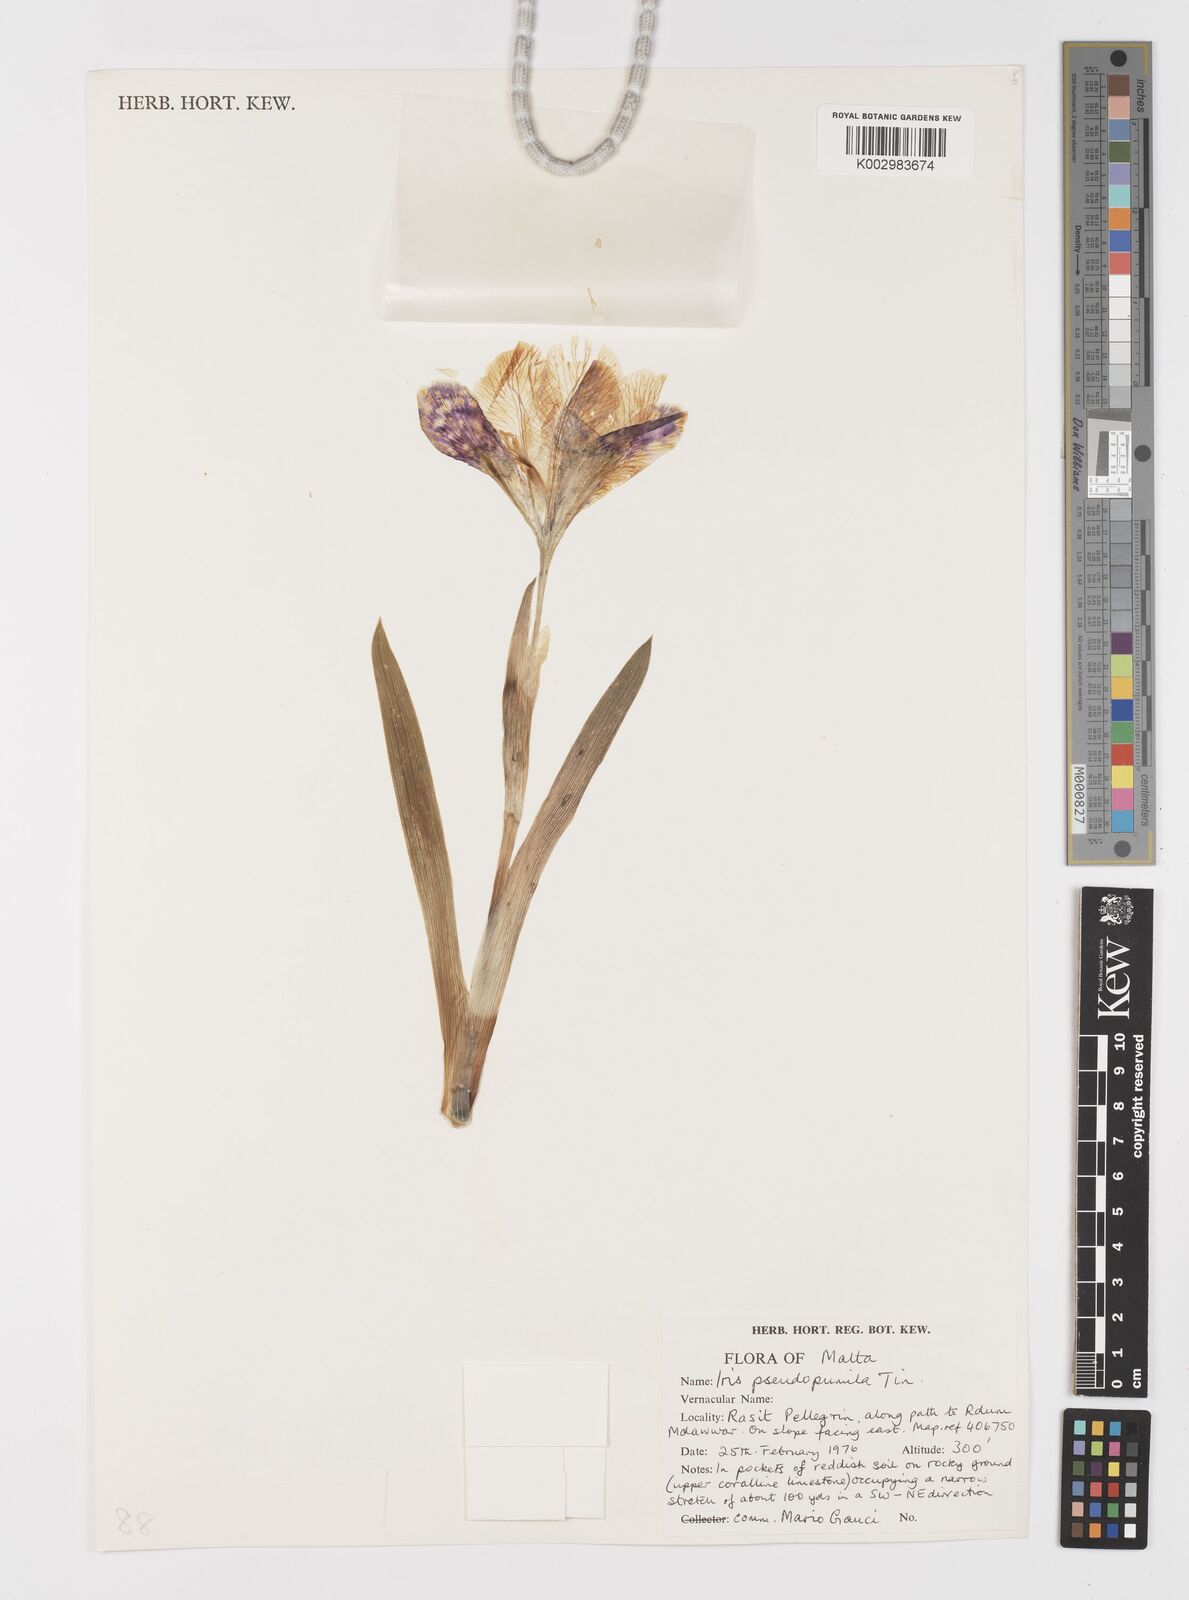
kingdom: Plantae
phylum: Tracheophyta
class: Liliopsida
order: Asparagales
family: Iridaceae
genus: Iris
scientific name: Iris pseudopumila
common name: Southern dwarf iris
